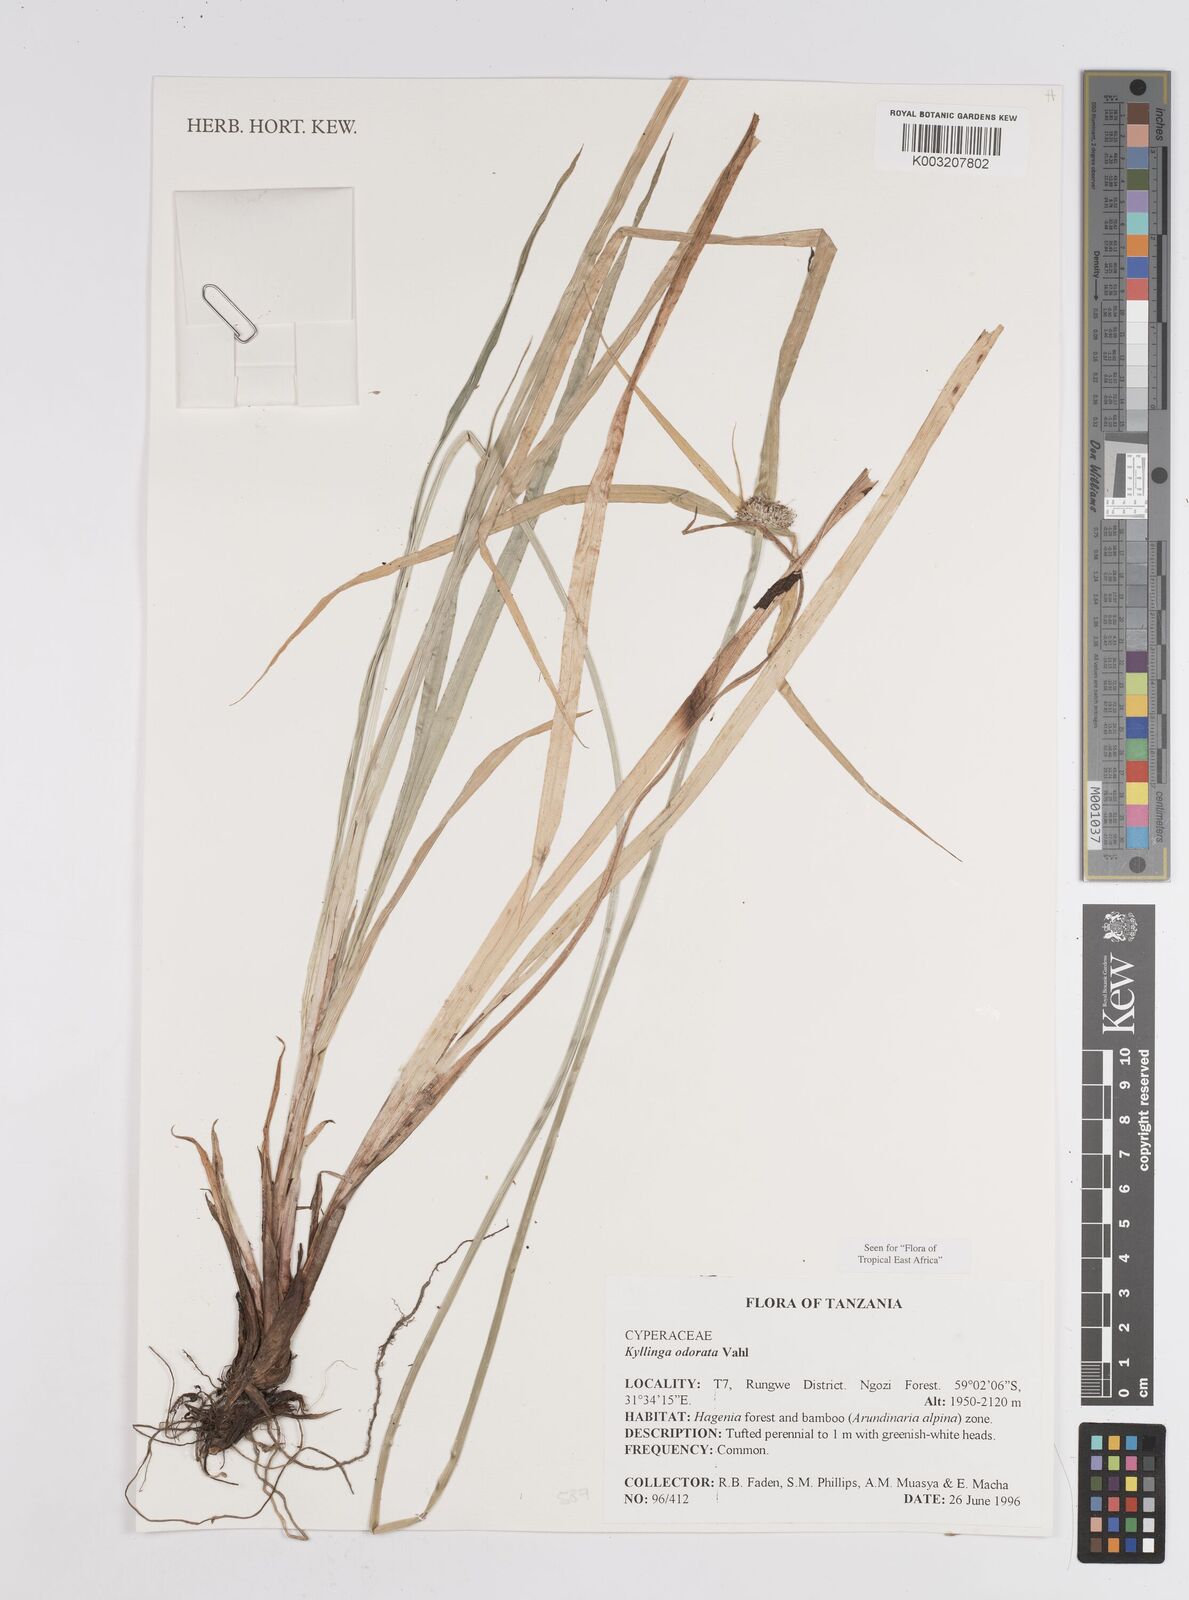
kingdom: Plantae
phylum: Tracheophyta
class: Liliopsida
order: Poales
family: Cyperaceae
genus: Cyperus
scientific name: Cyperus
